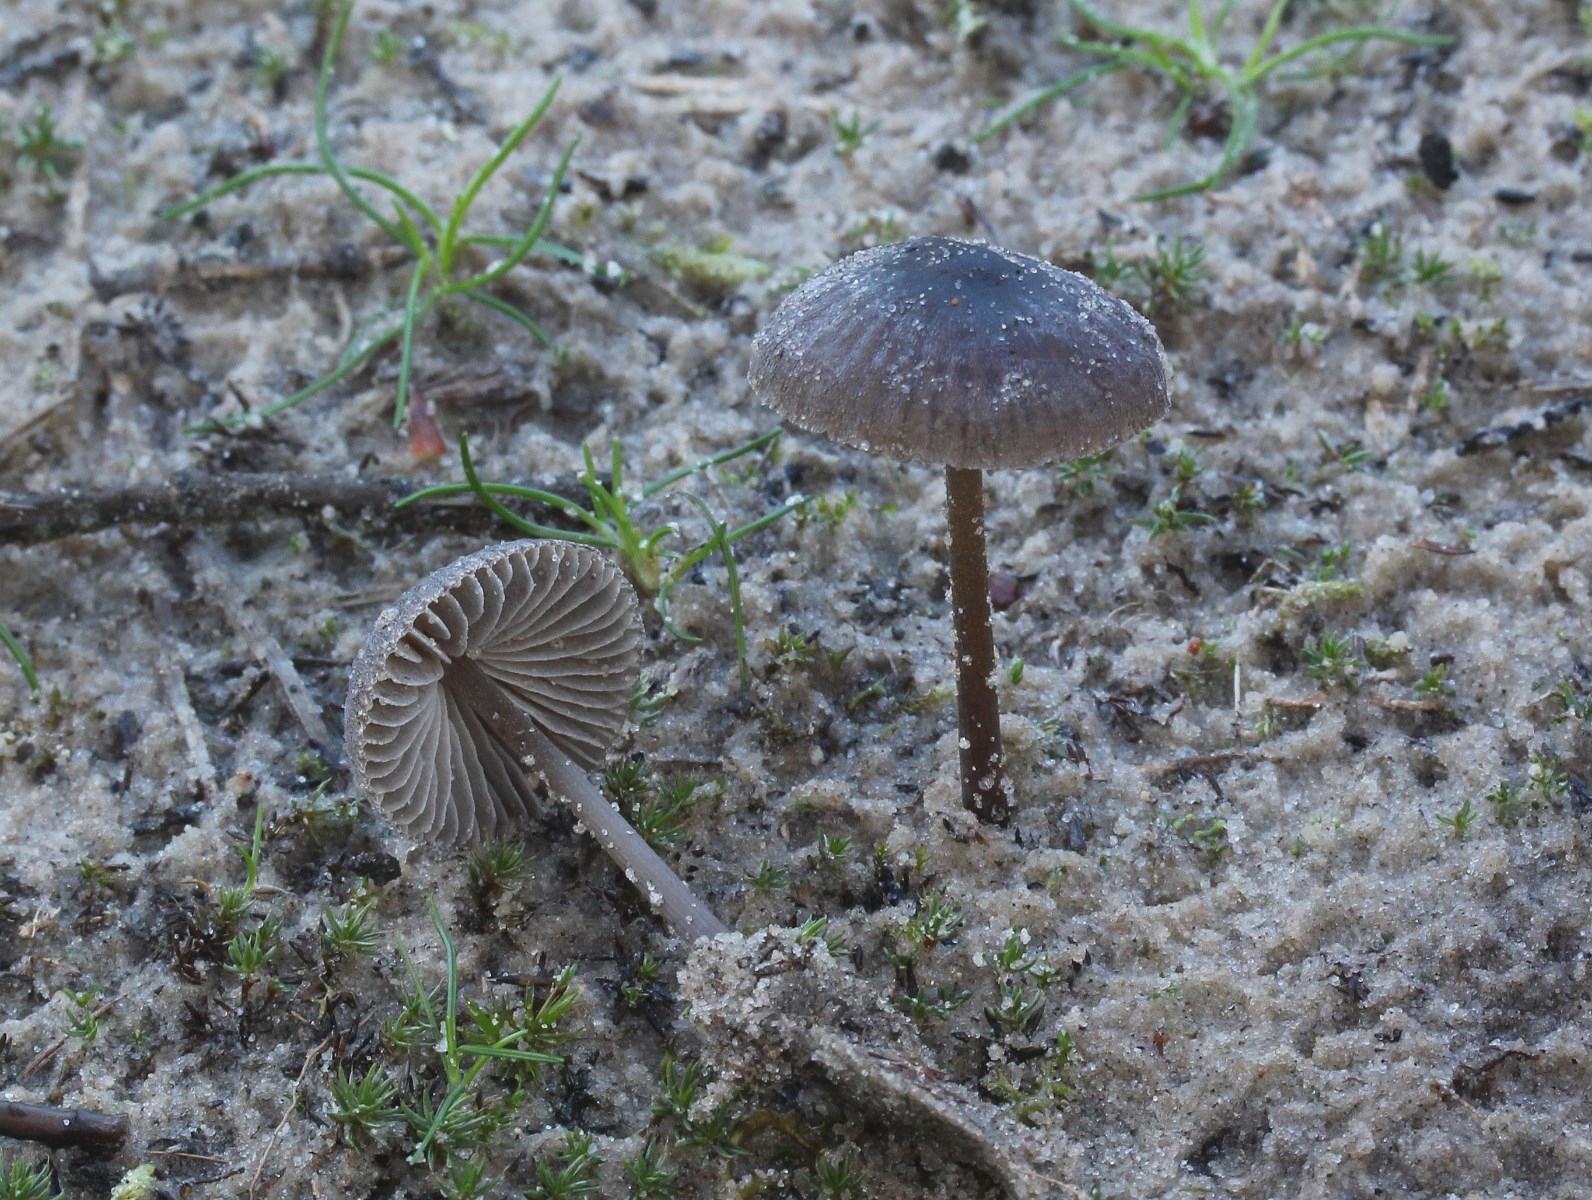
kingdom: Fungi
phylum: Basidiomycota
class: Agaricomycetes
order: Agaricales
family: Mycenaceae
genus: Mycena
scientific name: Mycena
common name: huesvamp
